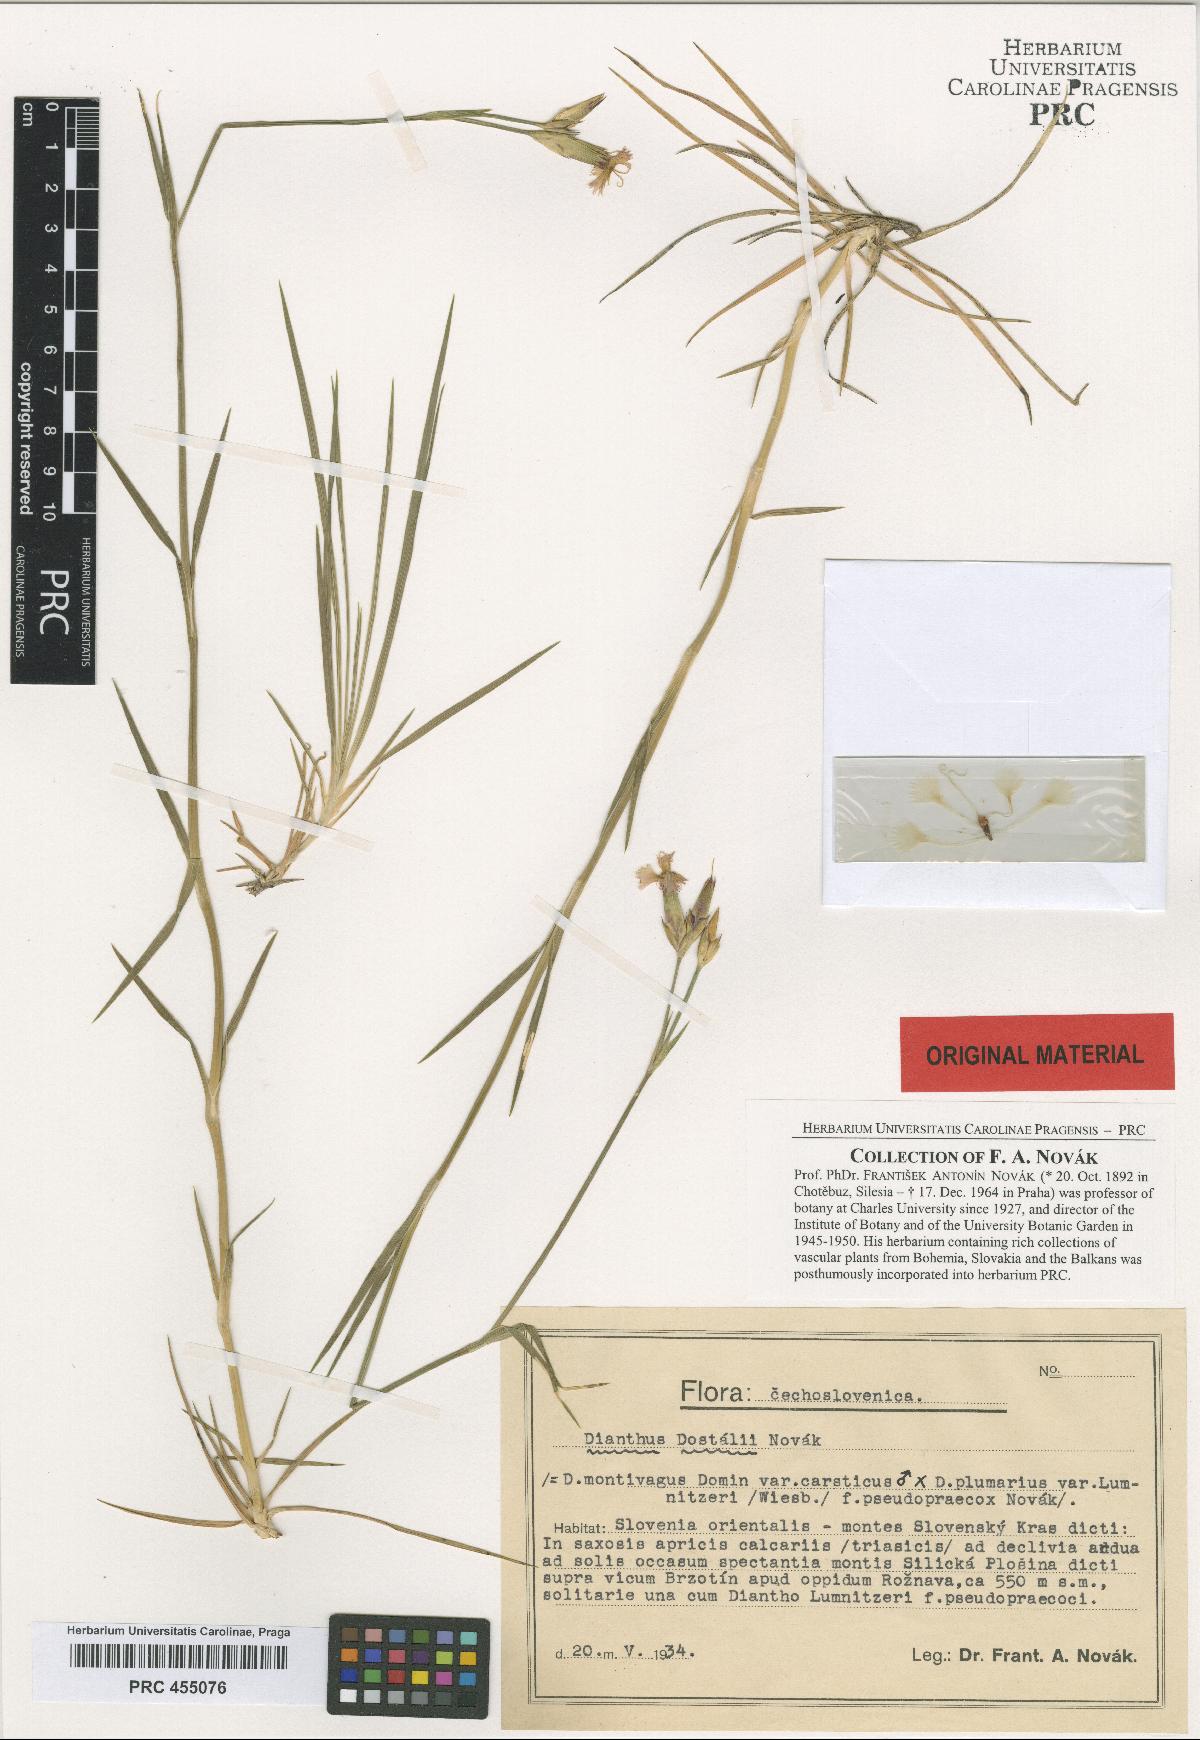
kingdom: Plantae
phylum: Tracheophyta
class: Magnoliopsida
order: Caryophyllales
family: Caryophyllaceae
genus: Dianthus
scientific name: Dianthus dostalii
